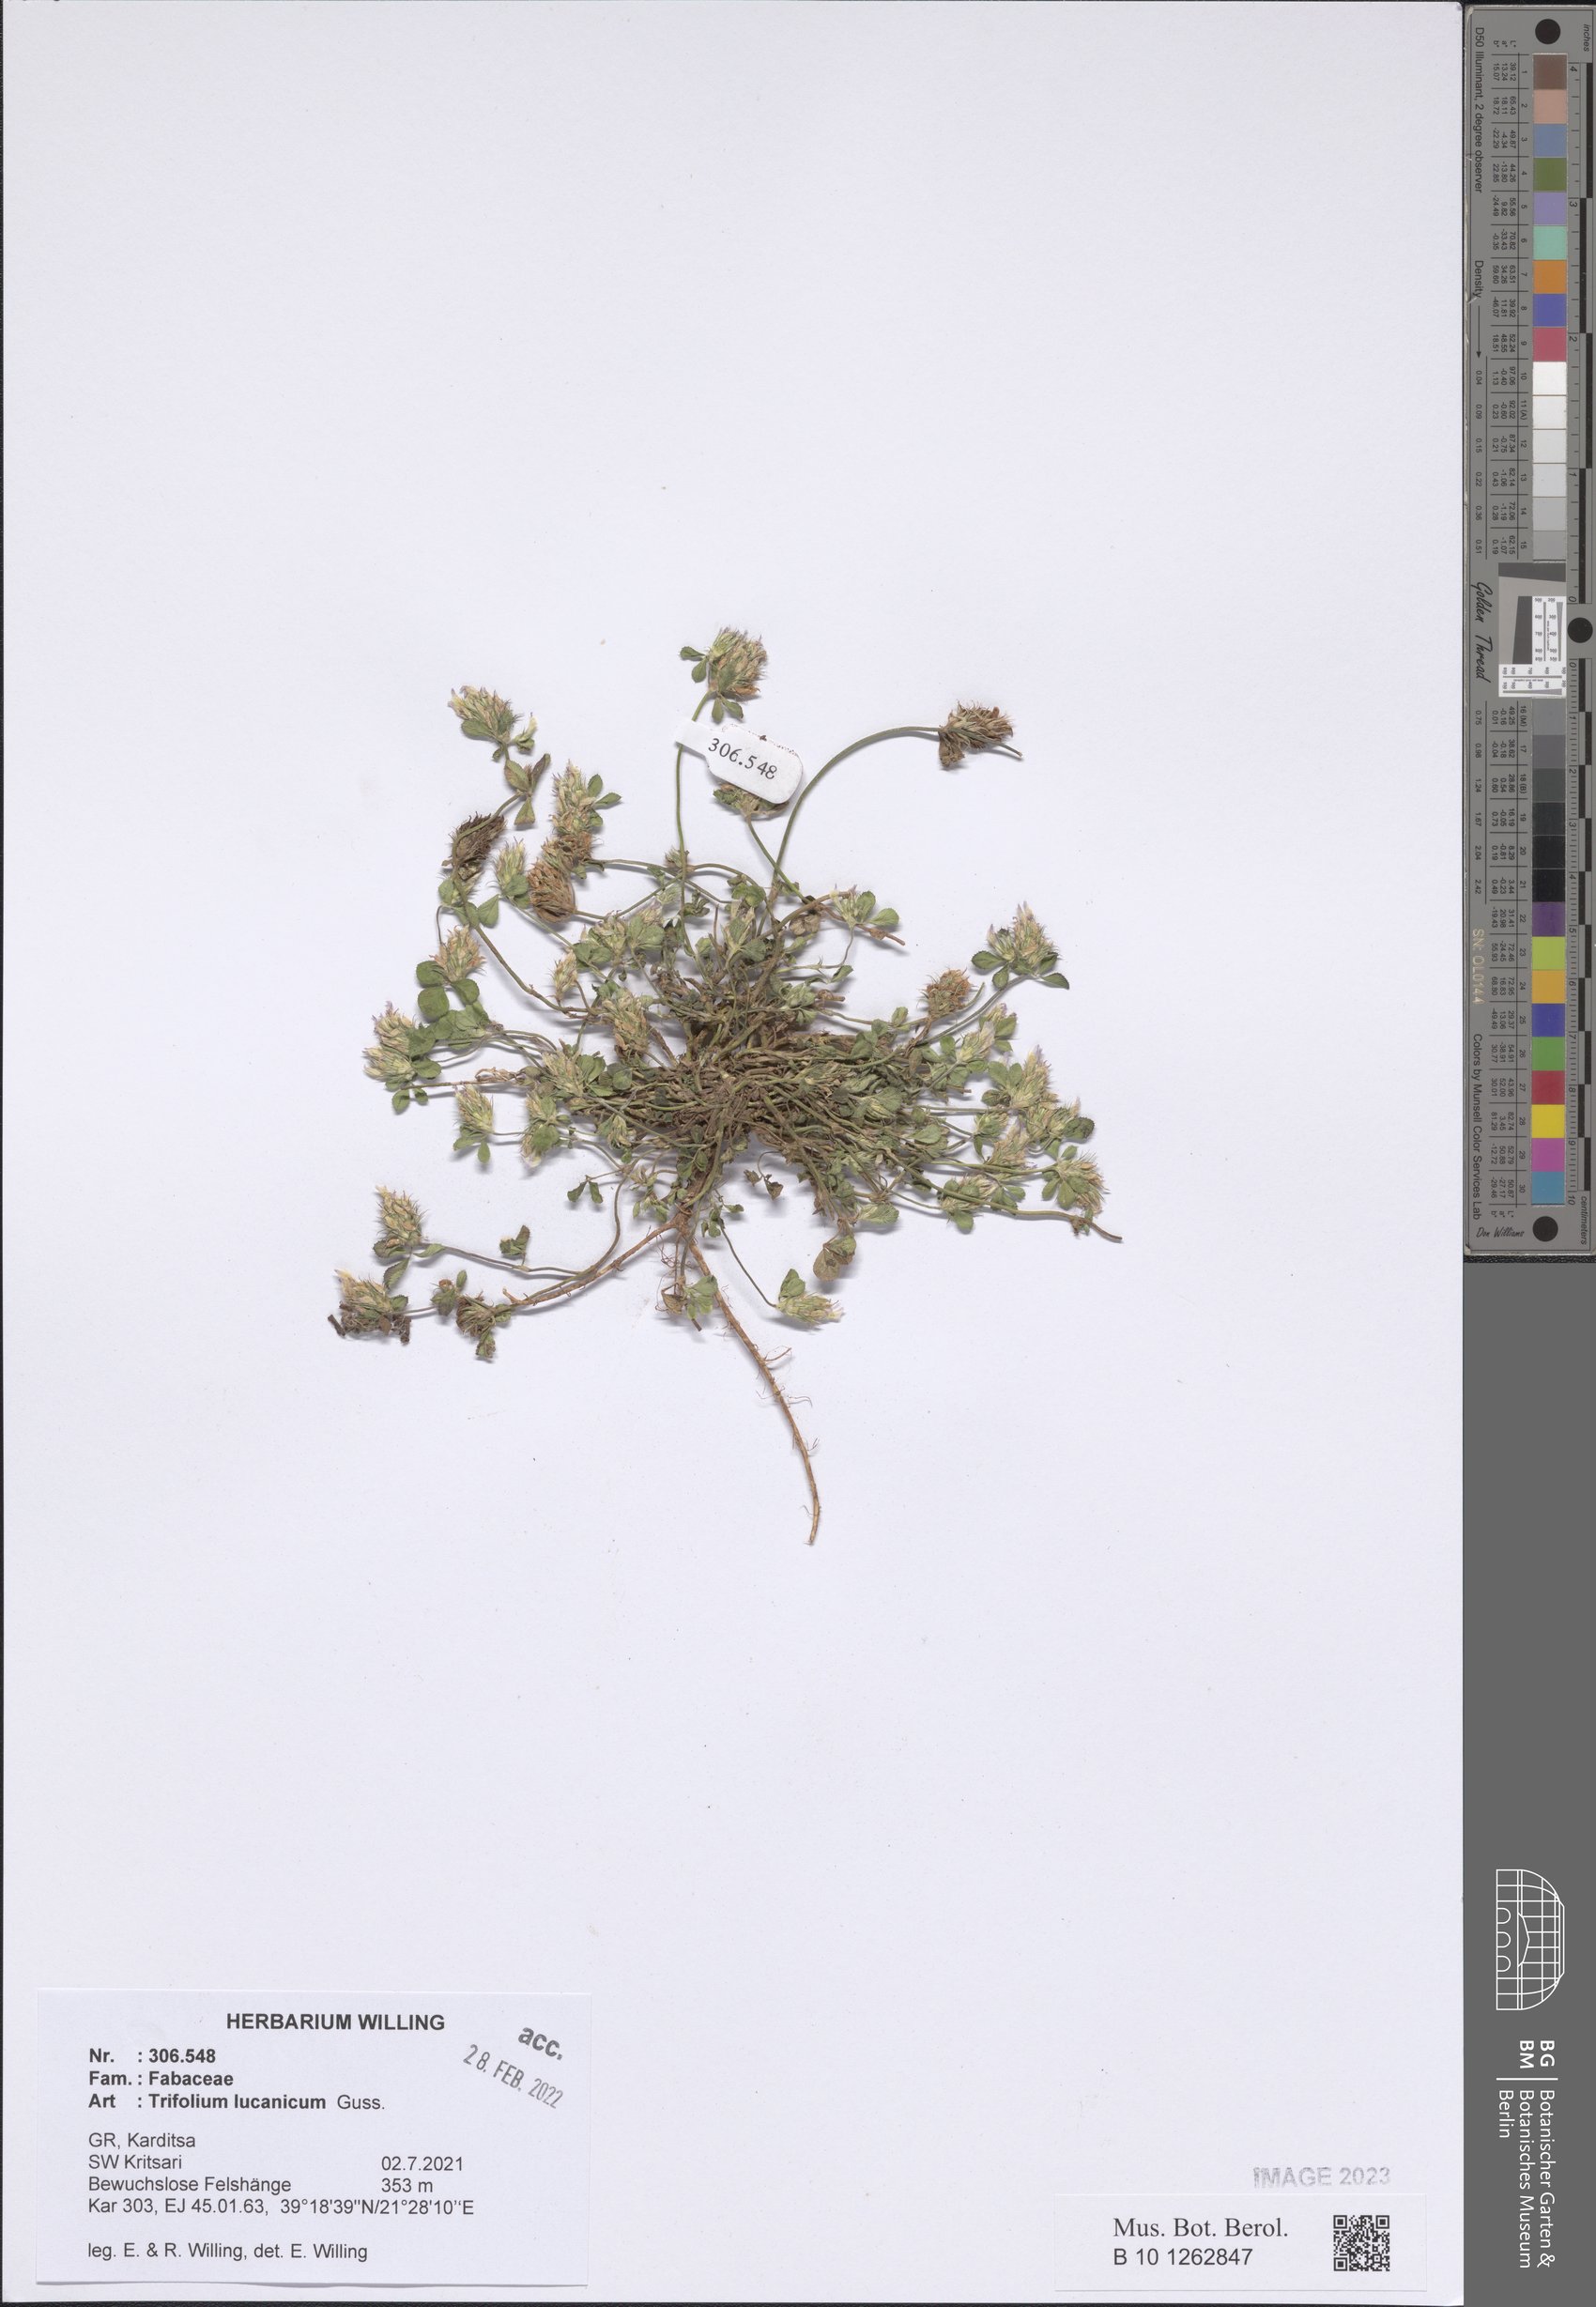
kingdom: Plantae
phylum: Tracheophyta
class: Magnoliopsida
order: Fabales
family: Fabaceae
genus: Trifolium
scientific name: Trifolium lucanicum
